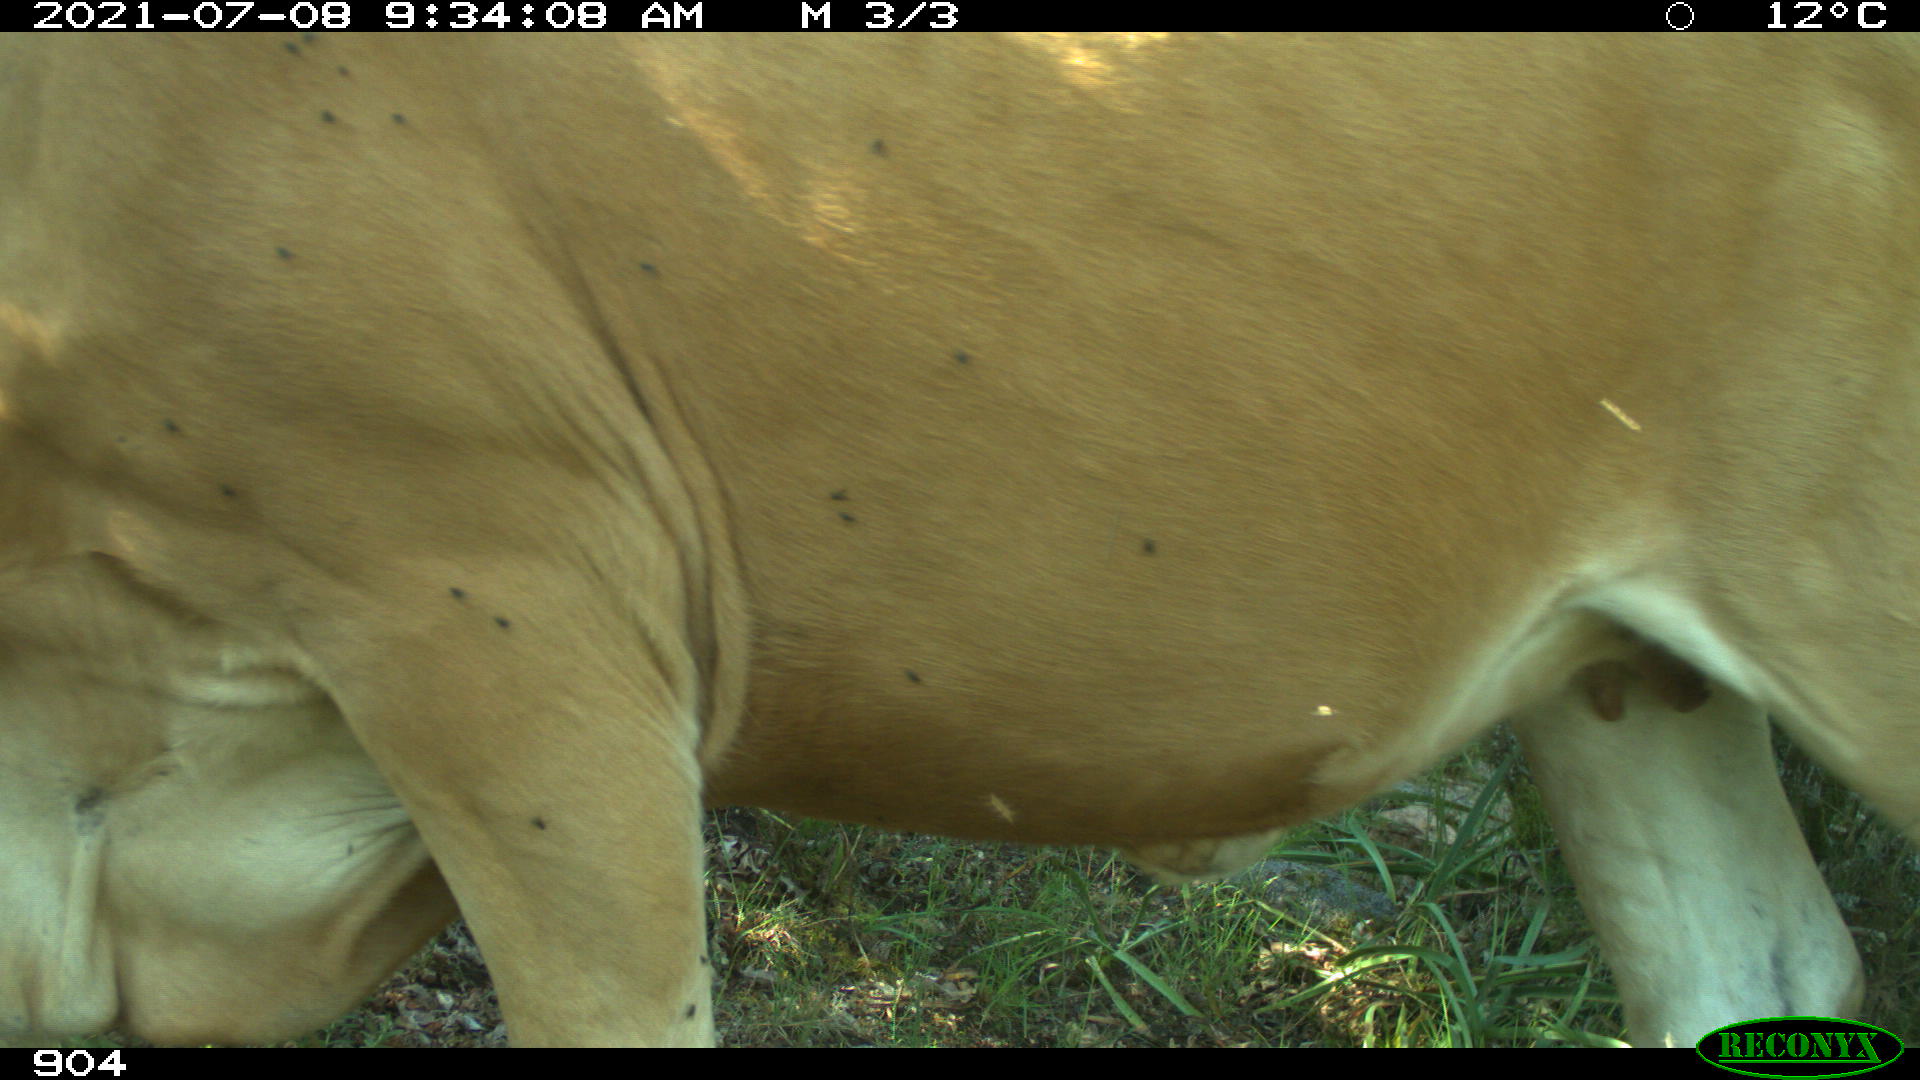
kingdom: Animalia
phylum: Chordata
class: Mammalia
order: Artiodactyla
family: Bovidae
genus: Bos
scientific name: Bos taurus
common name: Domesticated cattle
